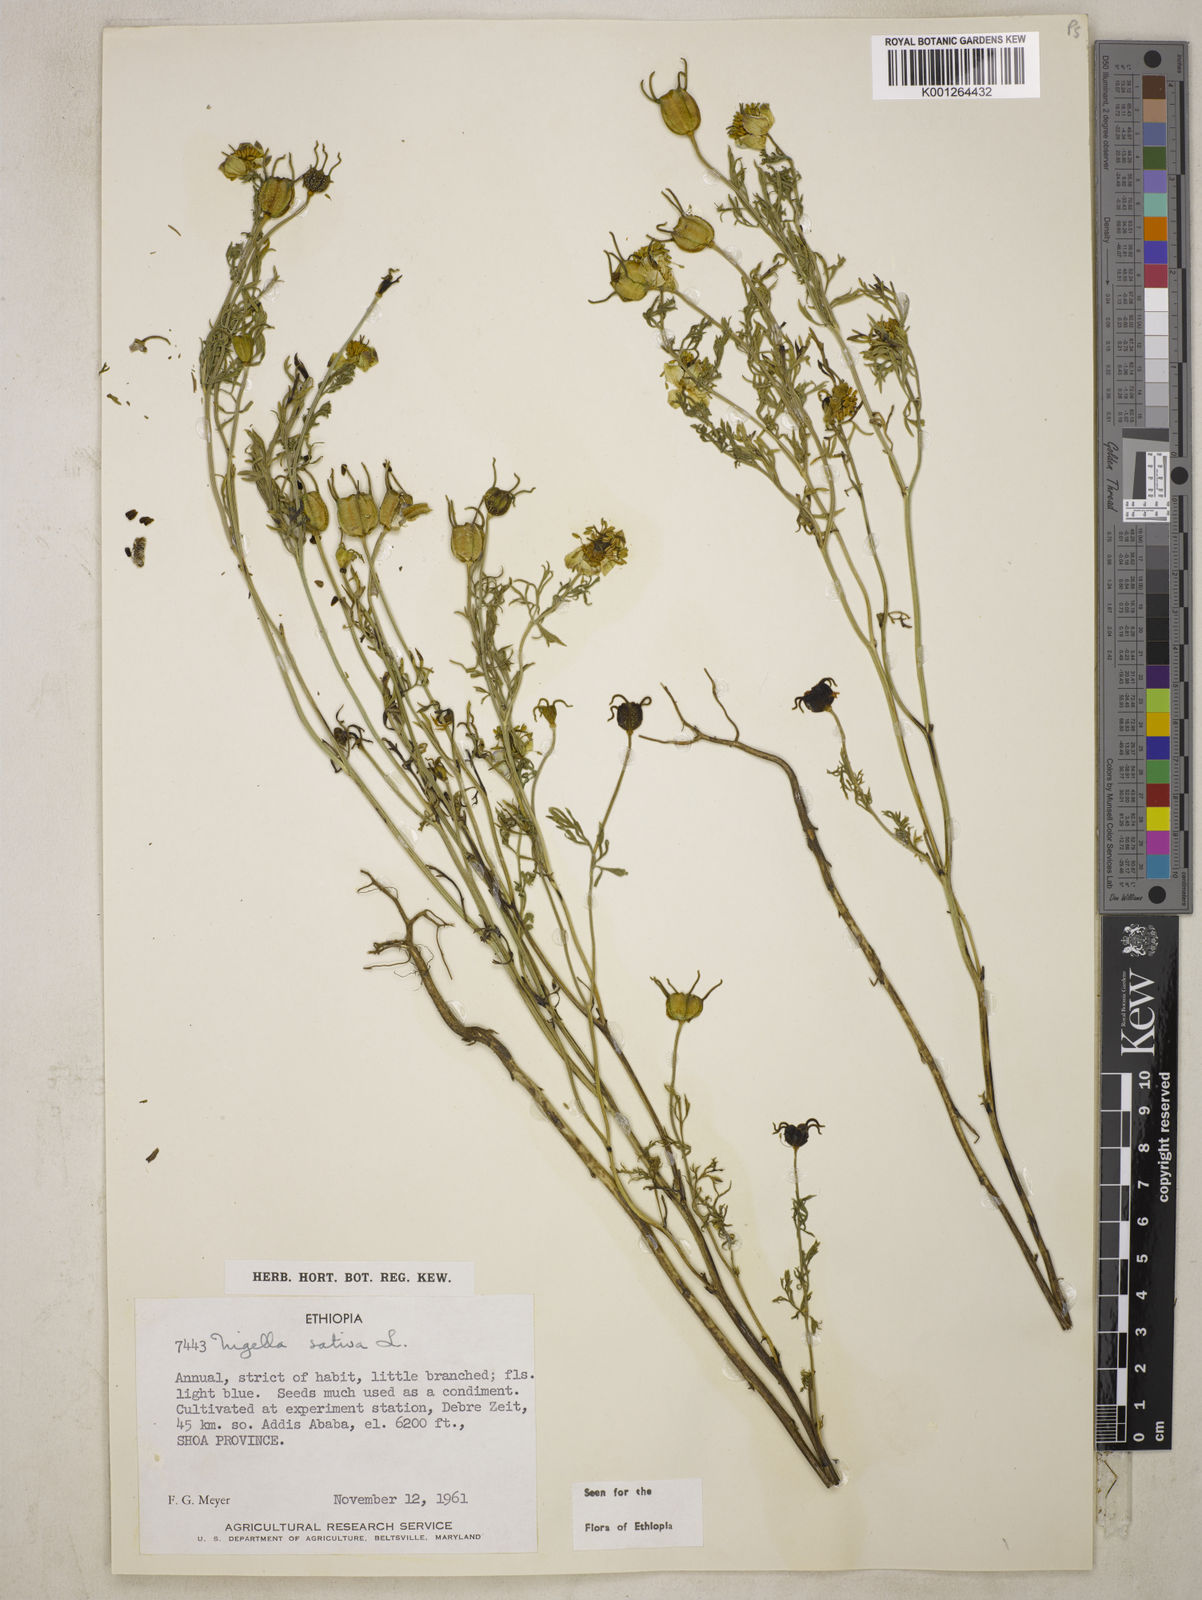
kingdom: Plantae
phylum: Tracheophyta
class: Magnoliopsida
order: Ranunculales
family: Ranunculaceae
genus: Nigella
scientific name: Nigella sativa
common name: Black-cumin
